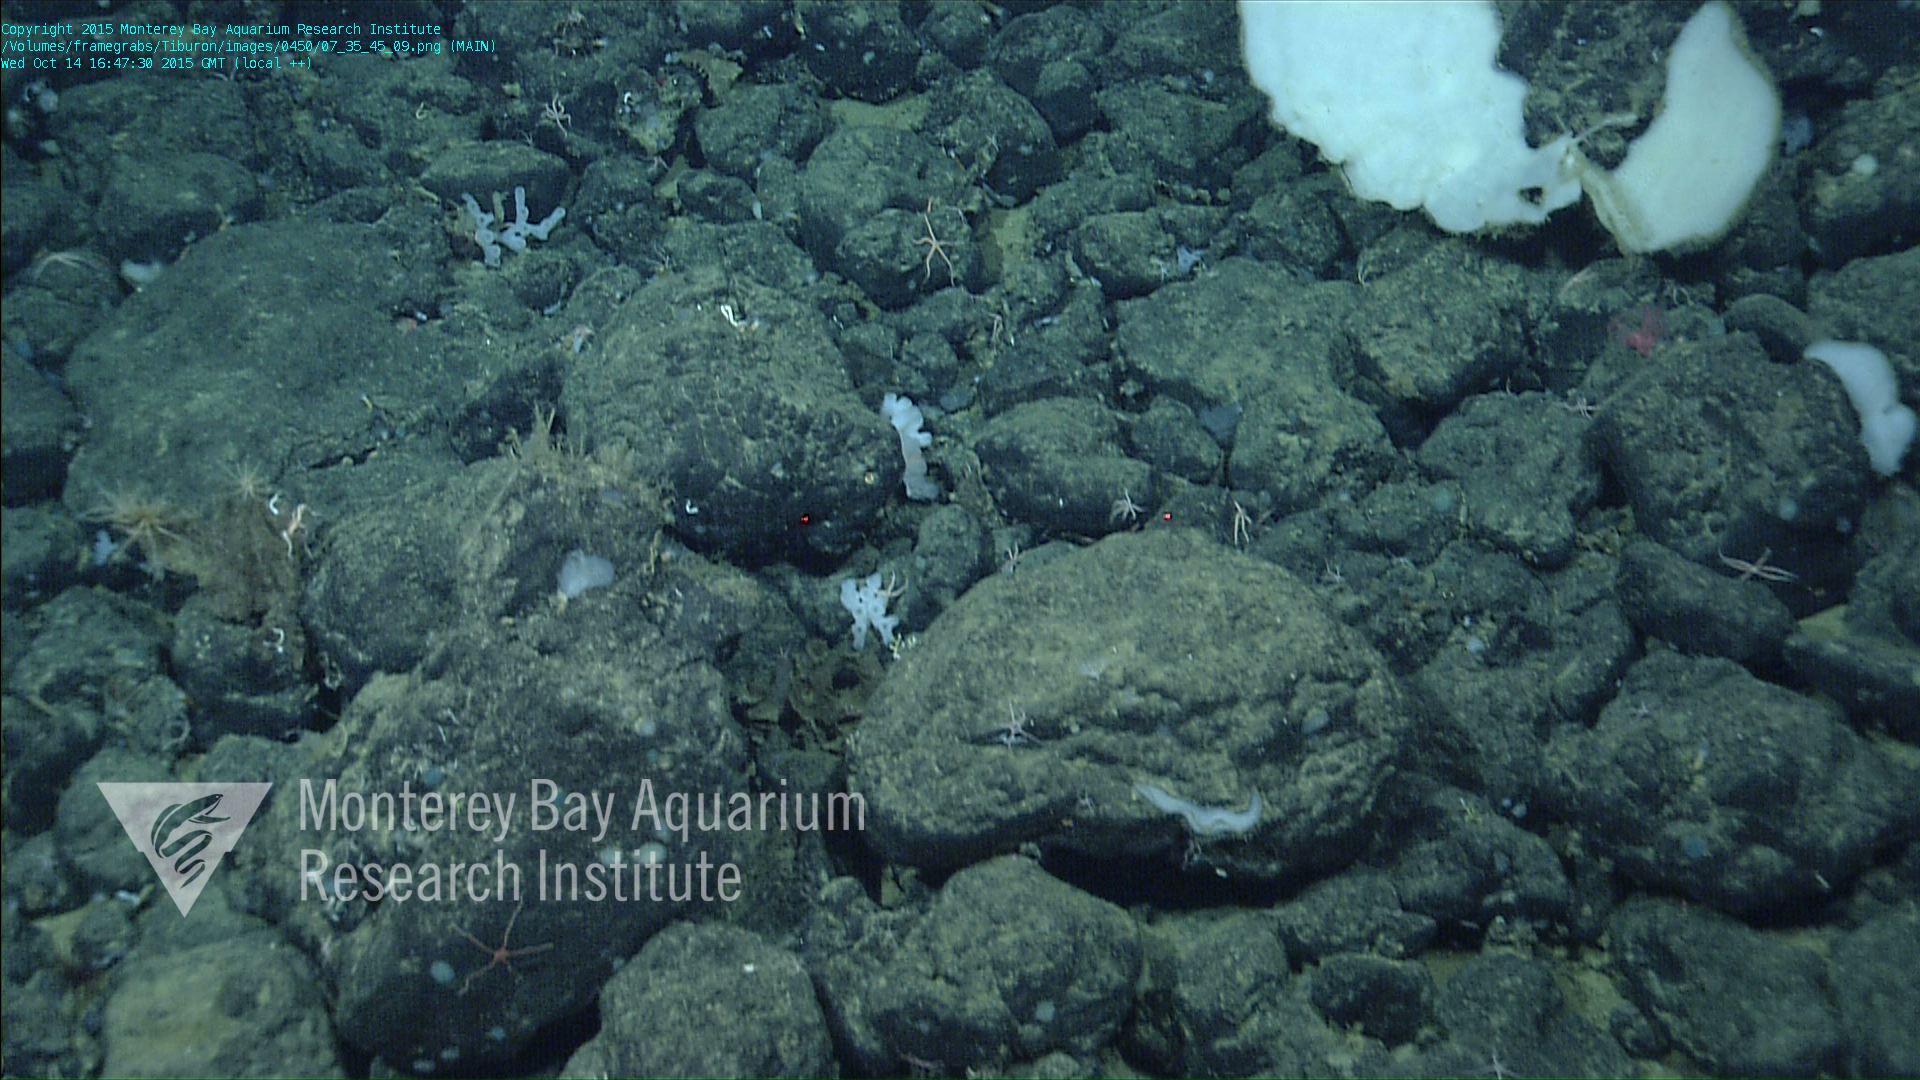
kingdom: Animalia
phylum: Porifera
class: Hexactinellida
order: Sceptrulophora
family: Farreidae
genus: Farrea
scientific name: Farrea truncata
